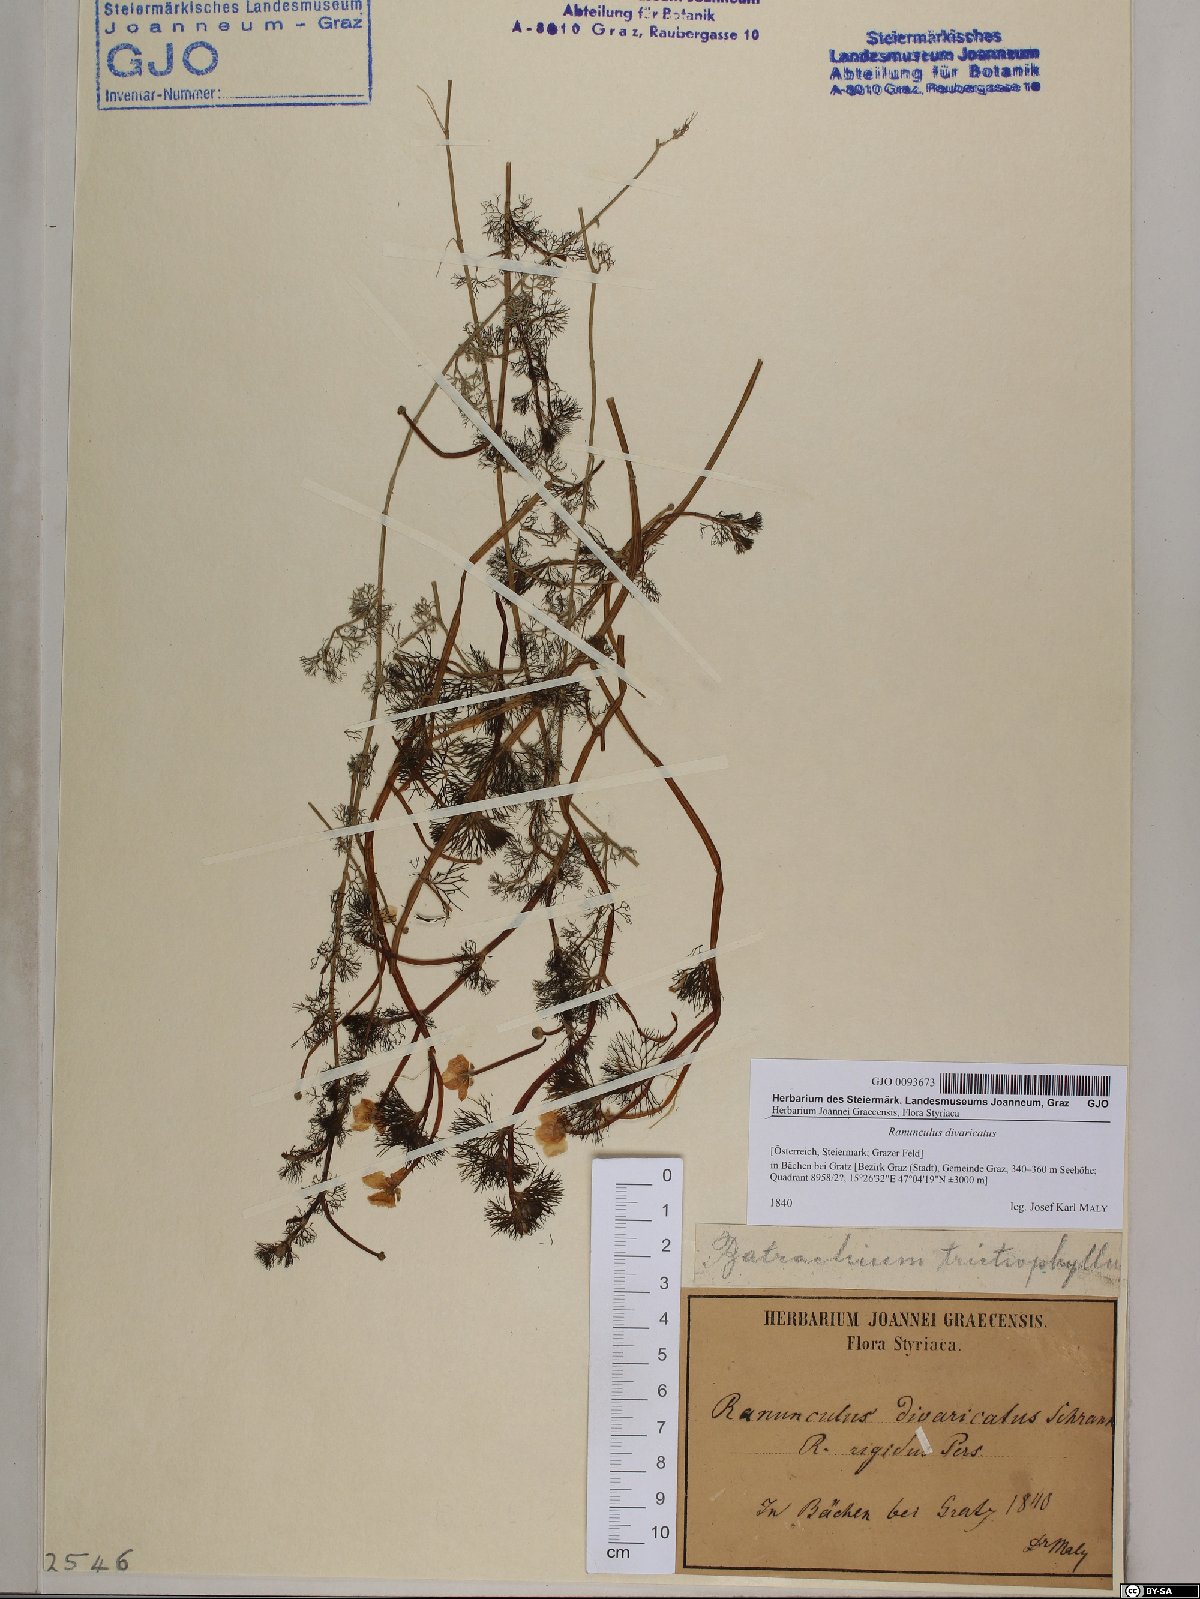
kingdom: Plantae
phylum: Tracheophyta
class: Magnoliopsida
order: Ranunculales
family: Ranunculaceae
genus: Ranunculus
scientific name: Ranunculus trichophyllus
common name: Thread-leaved water-crowfoot
